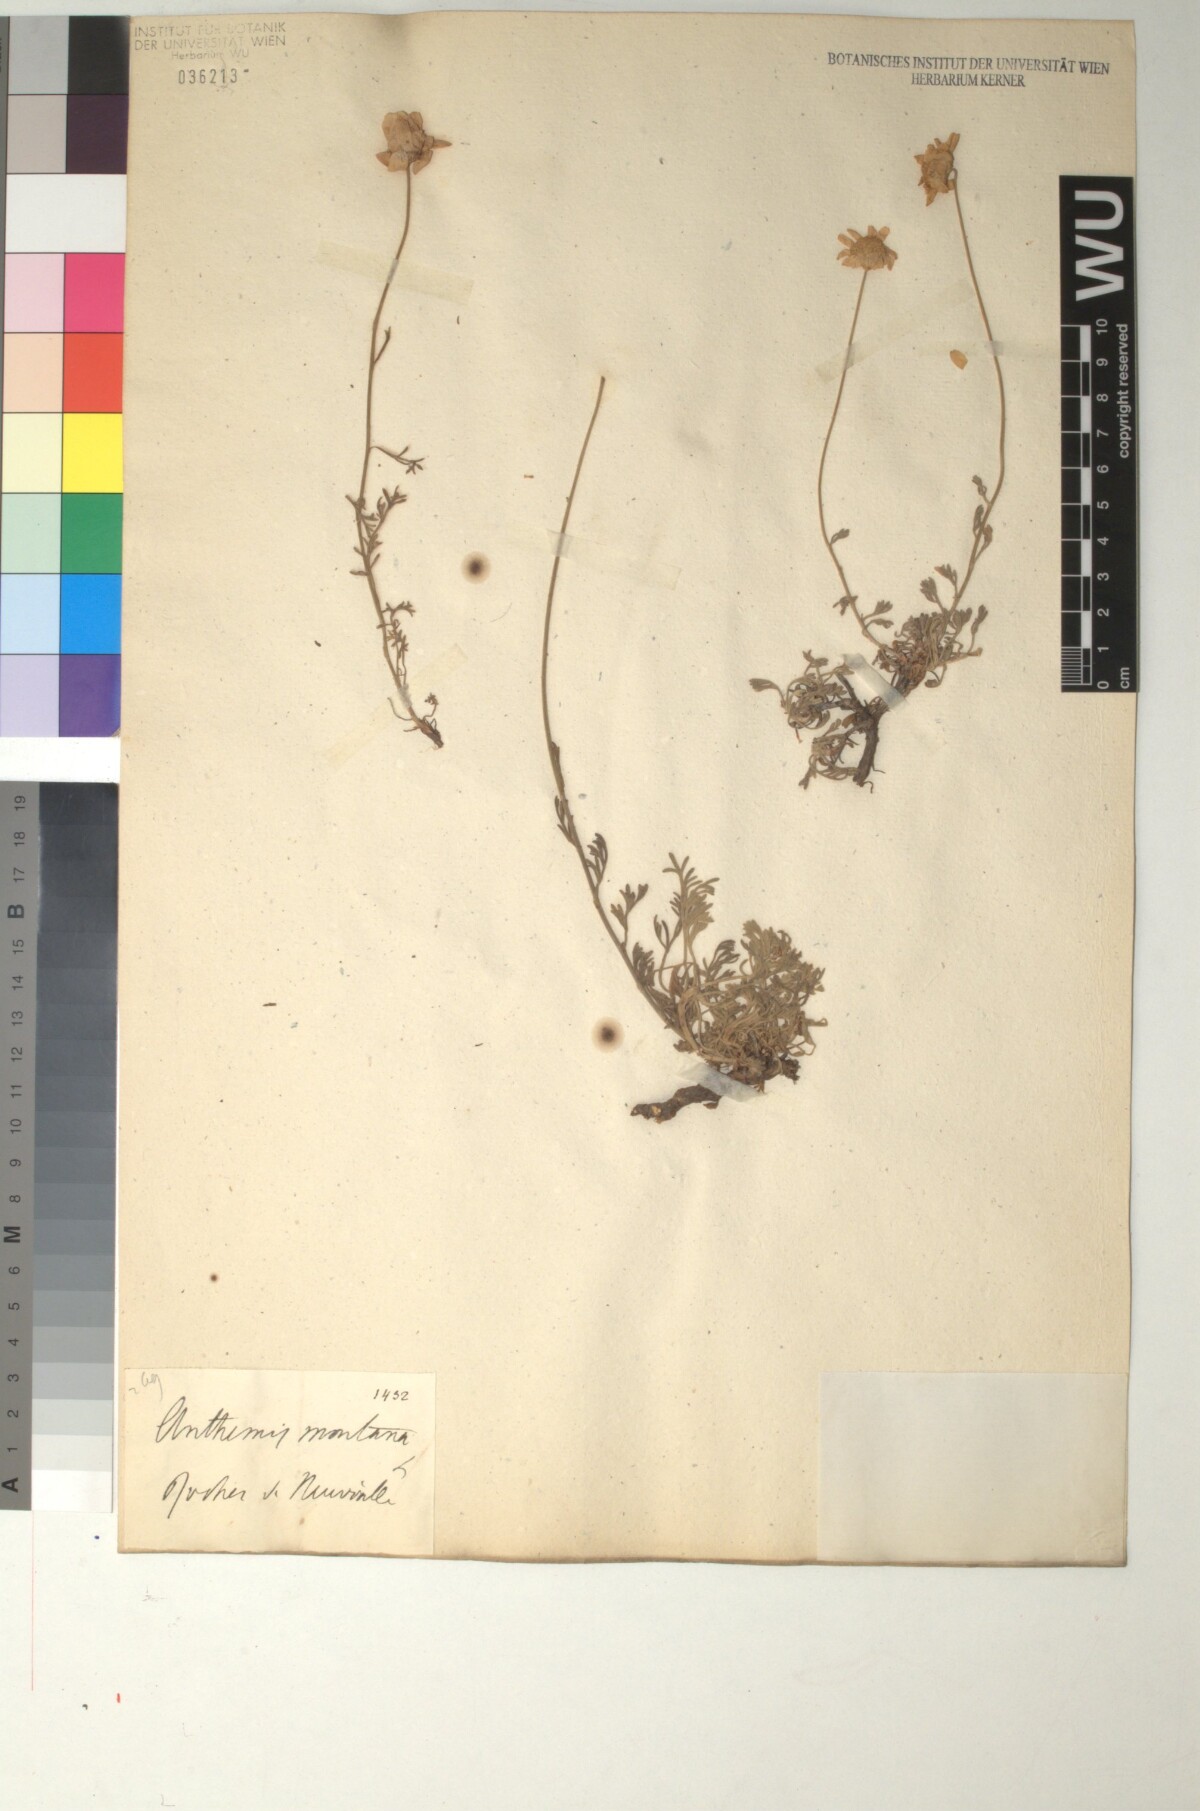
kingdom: Plantae
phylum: Tracheophyta
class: Magnoliopsida
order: Asterales
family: Asteraceae
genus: Anthemis
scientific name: Anthemis cretica
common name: Mountain dog-daisy
